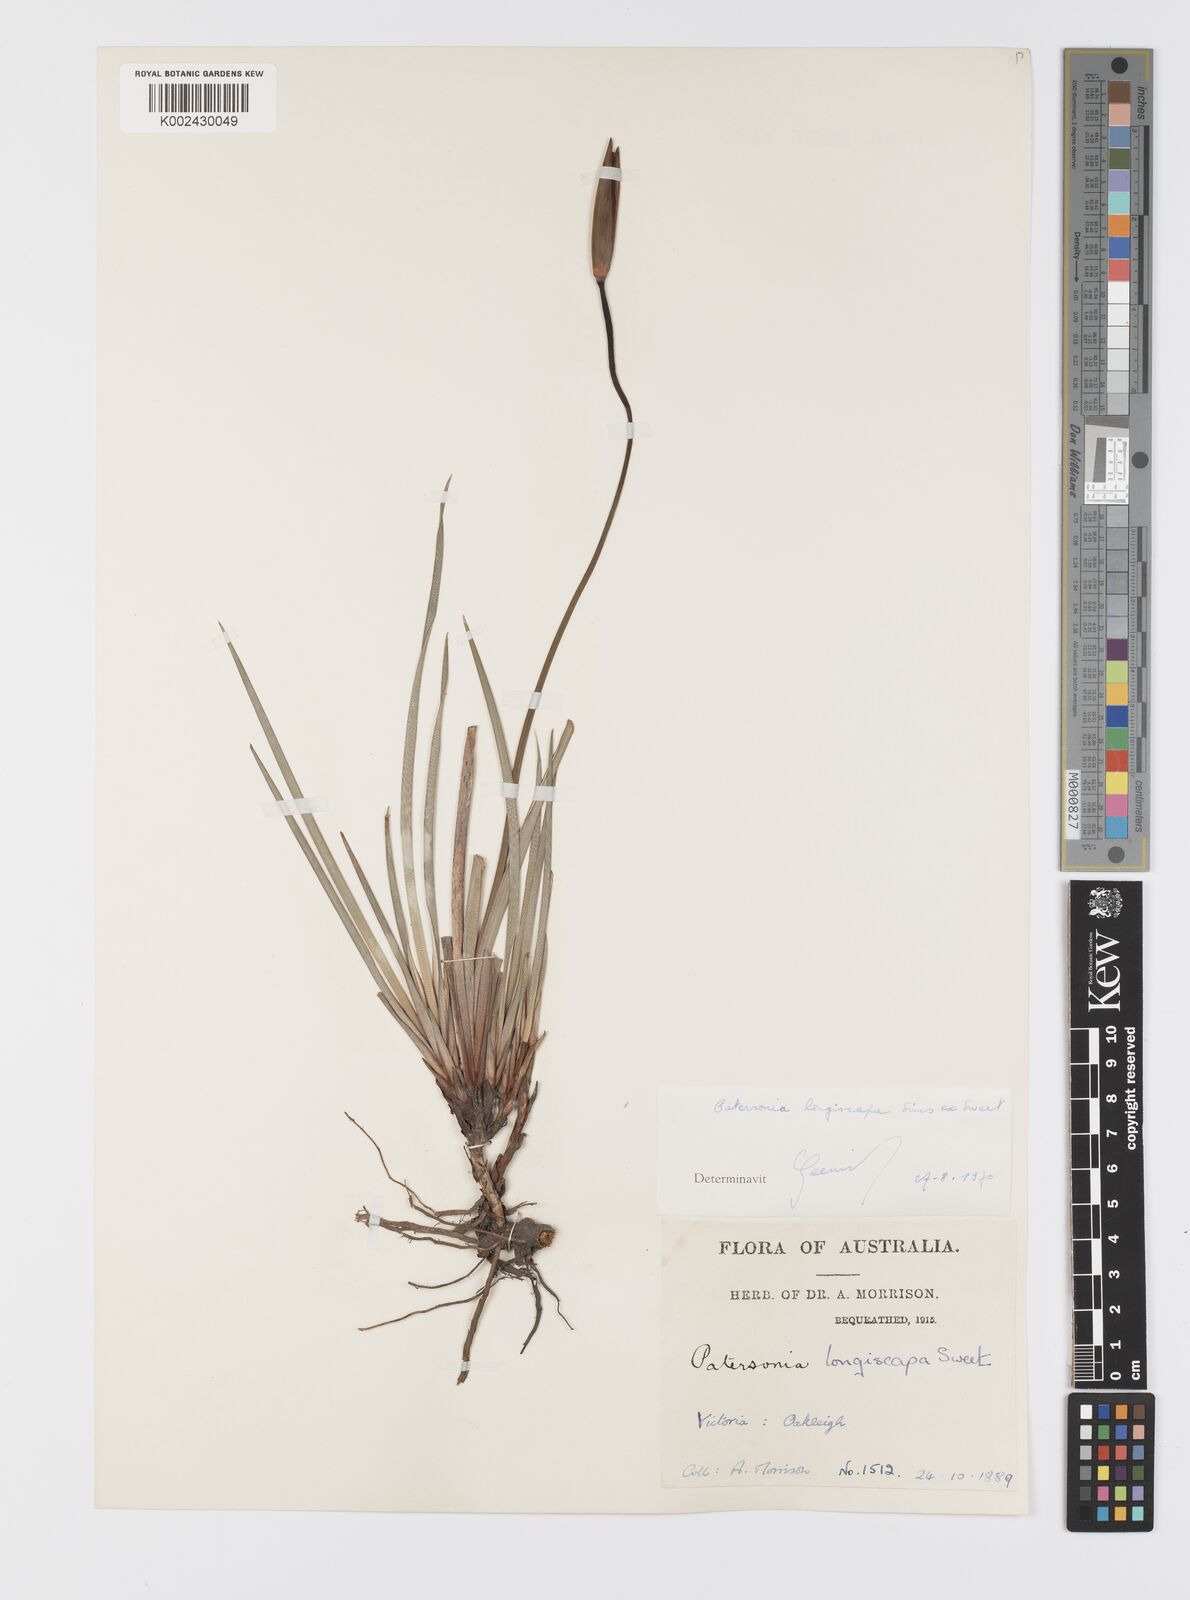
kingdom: Plantae
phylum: Tracheophyta
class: Liliopsida
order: Asparagales
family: Iridaceae
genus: Patersonia
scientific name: Patersonia occidentalis
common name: Long purple-flag
